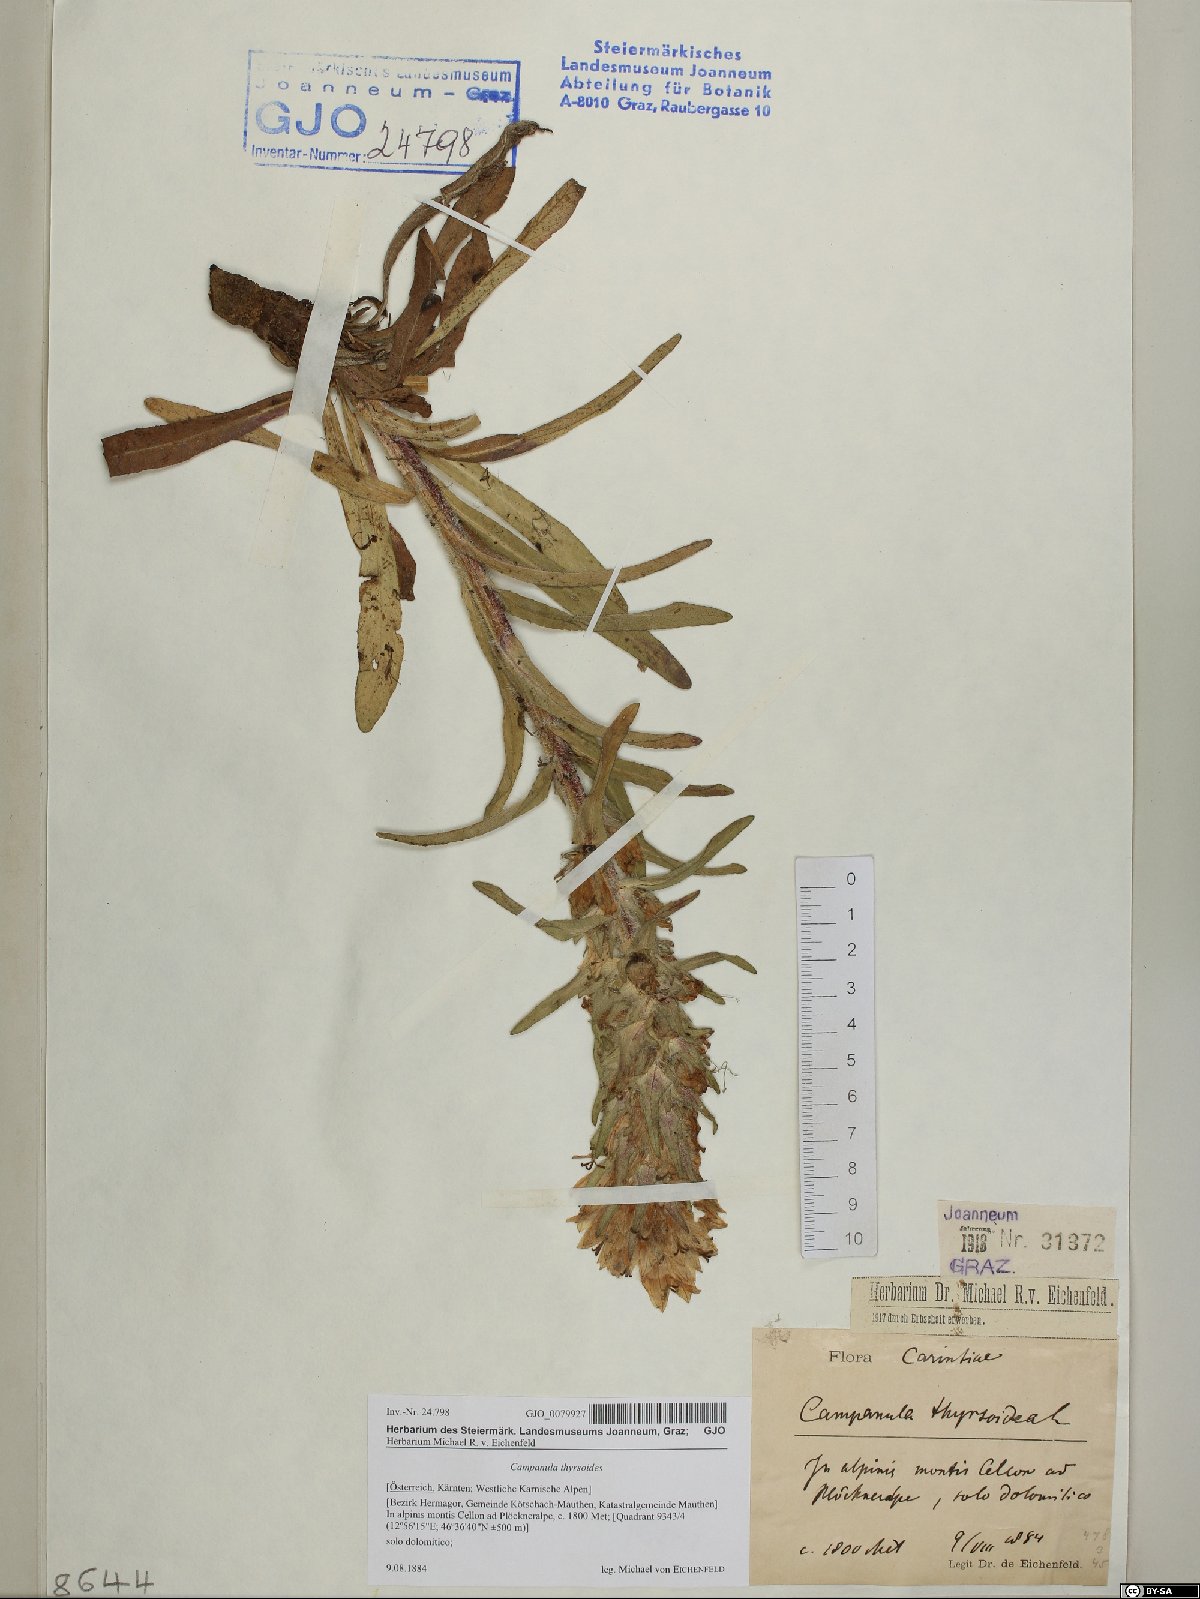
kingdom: Plantae
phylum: Tracheophyta
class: Magnoliopsida
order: Asterales
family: Campanulaceae
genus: Campanula
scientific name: Campanula thyrsoides
